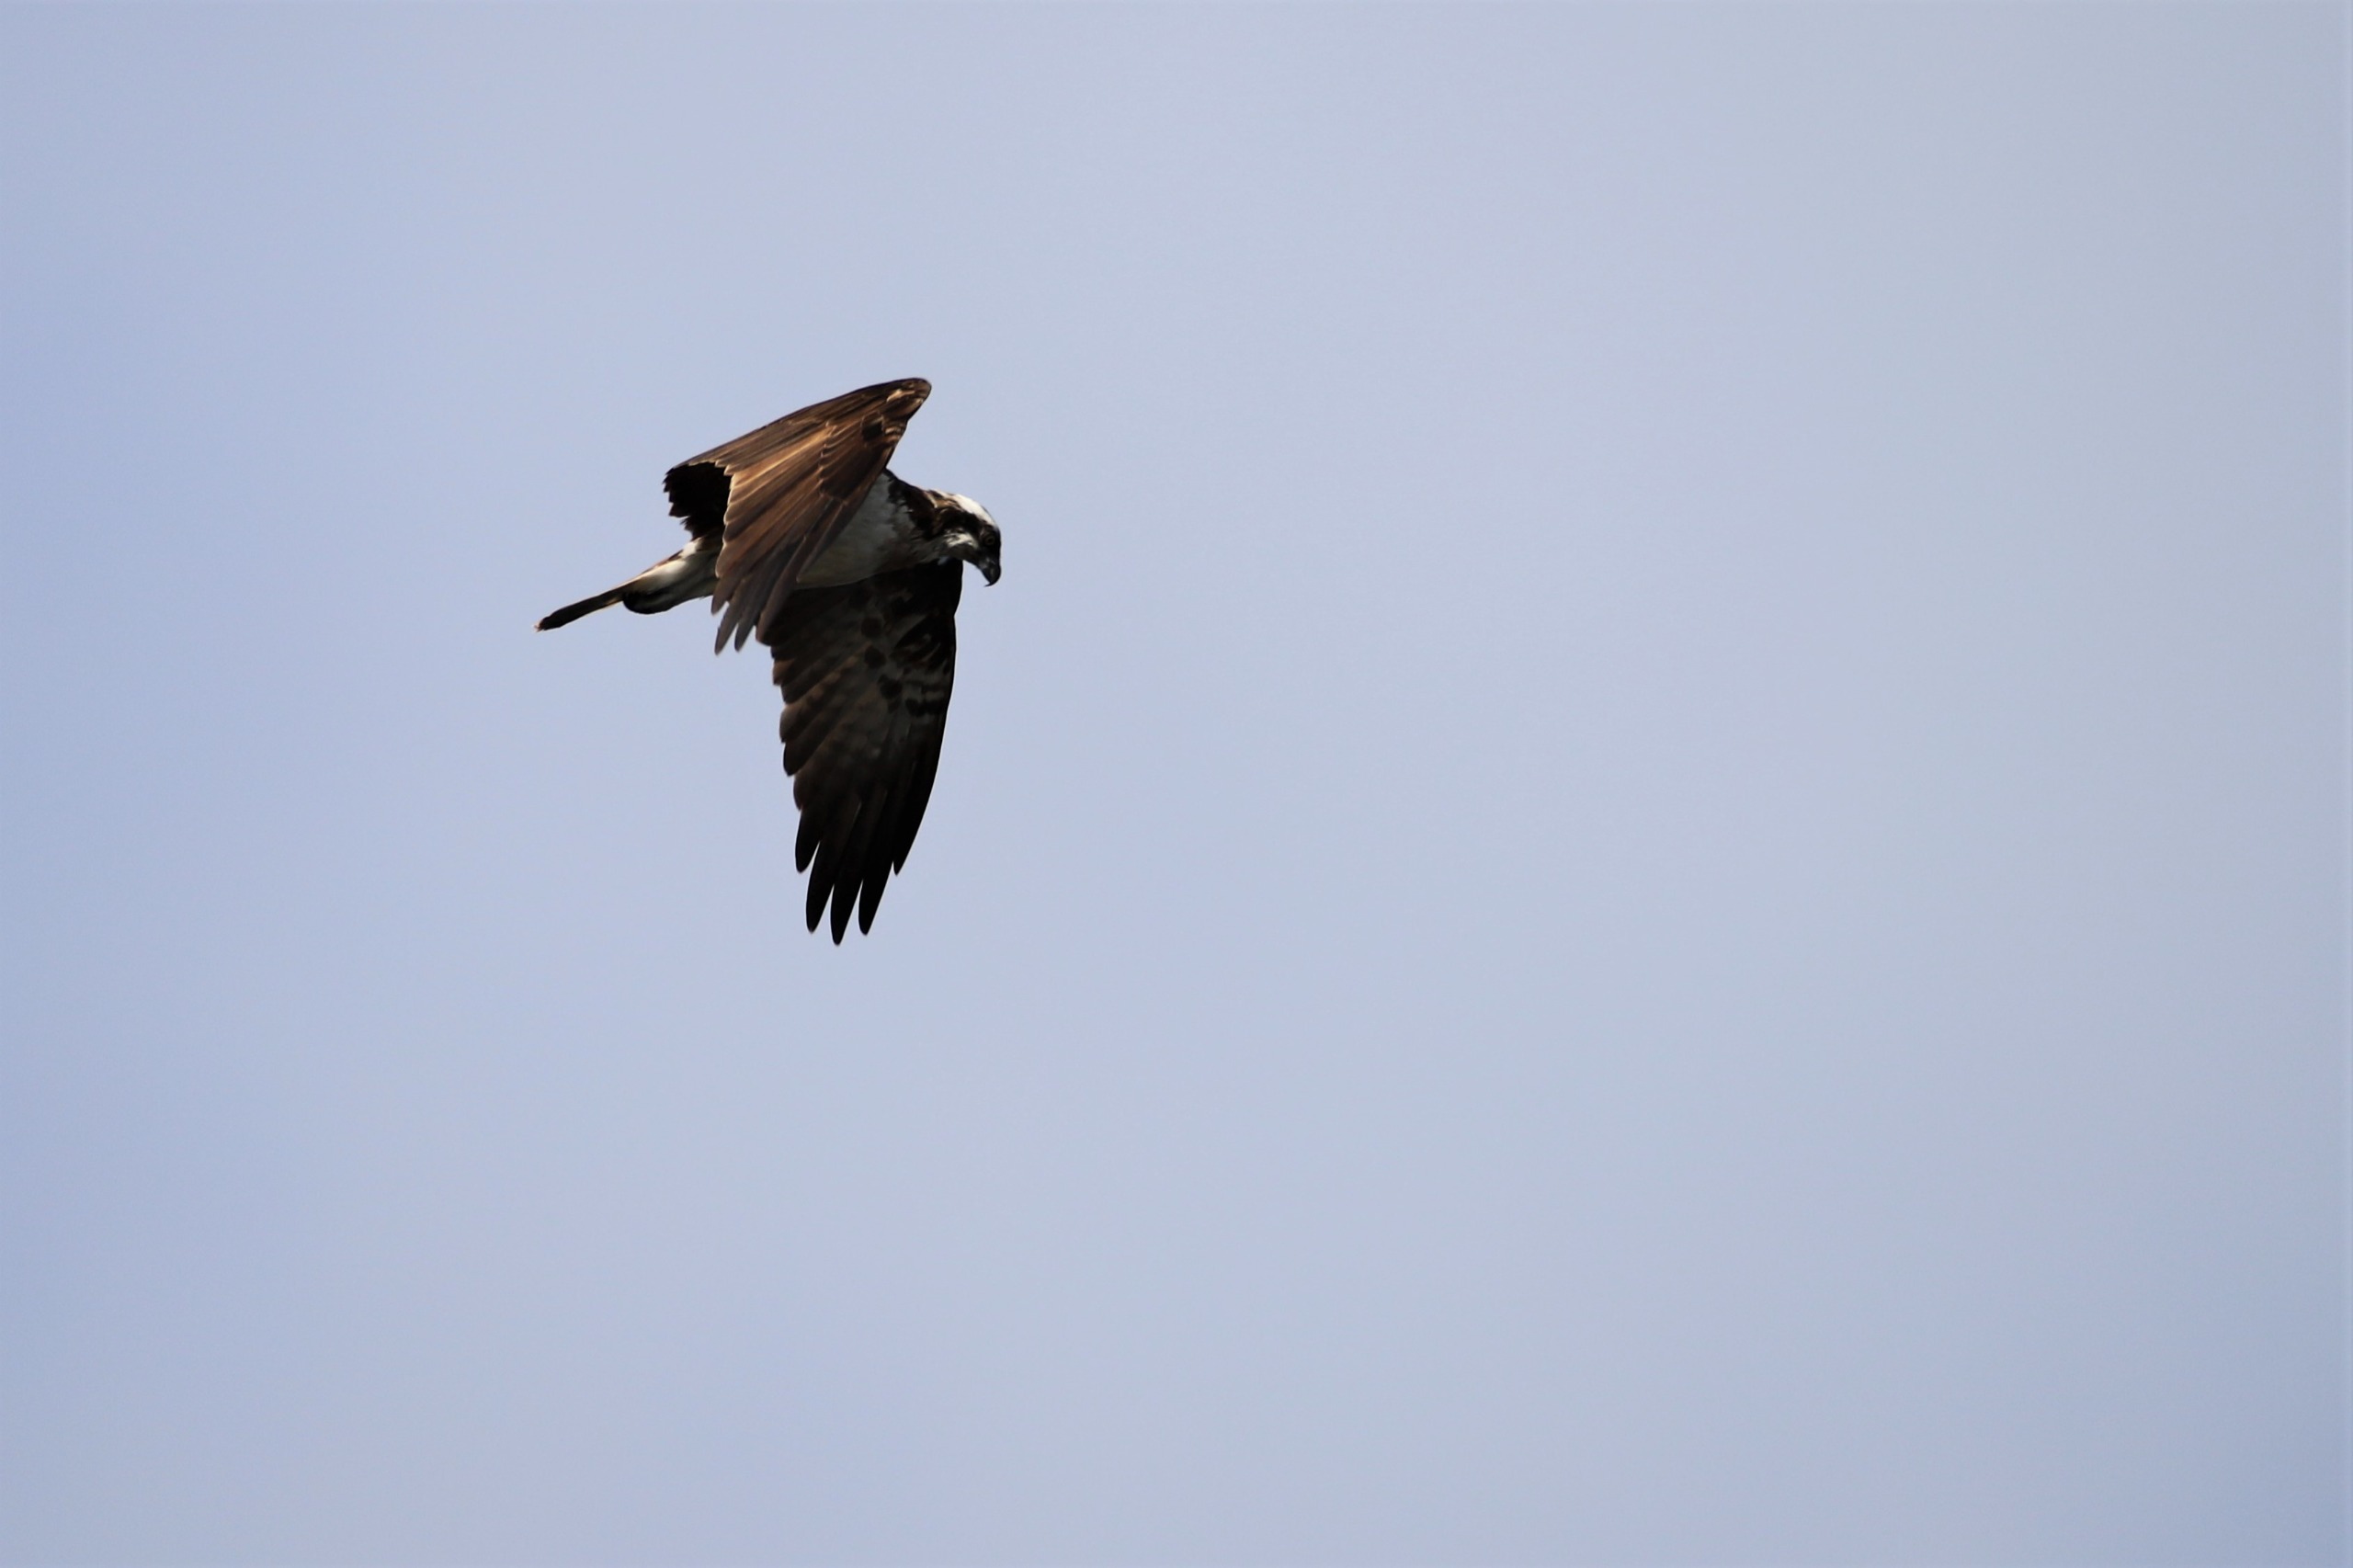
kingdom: Animalia
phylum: Chordata
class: Aves
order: Accipitriformes
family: Pandionidae
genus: Pandion
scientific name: Pandion haliaetus
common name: Fiskeørn
